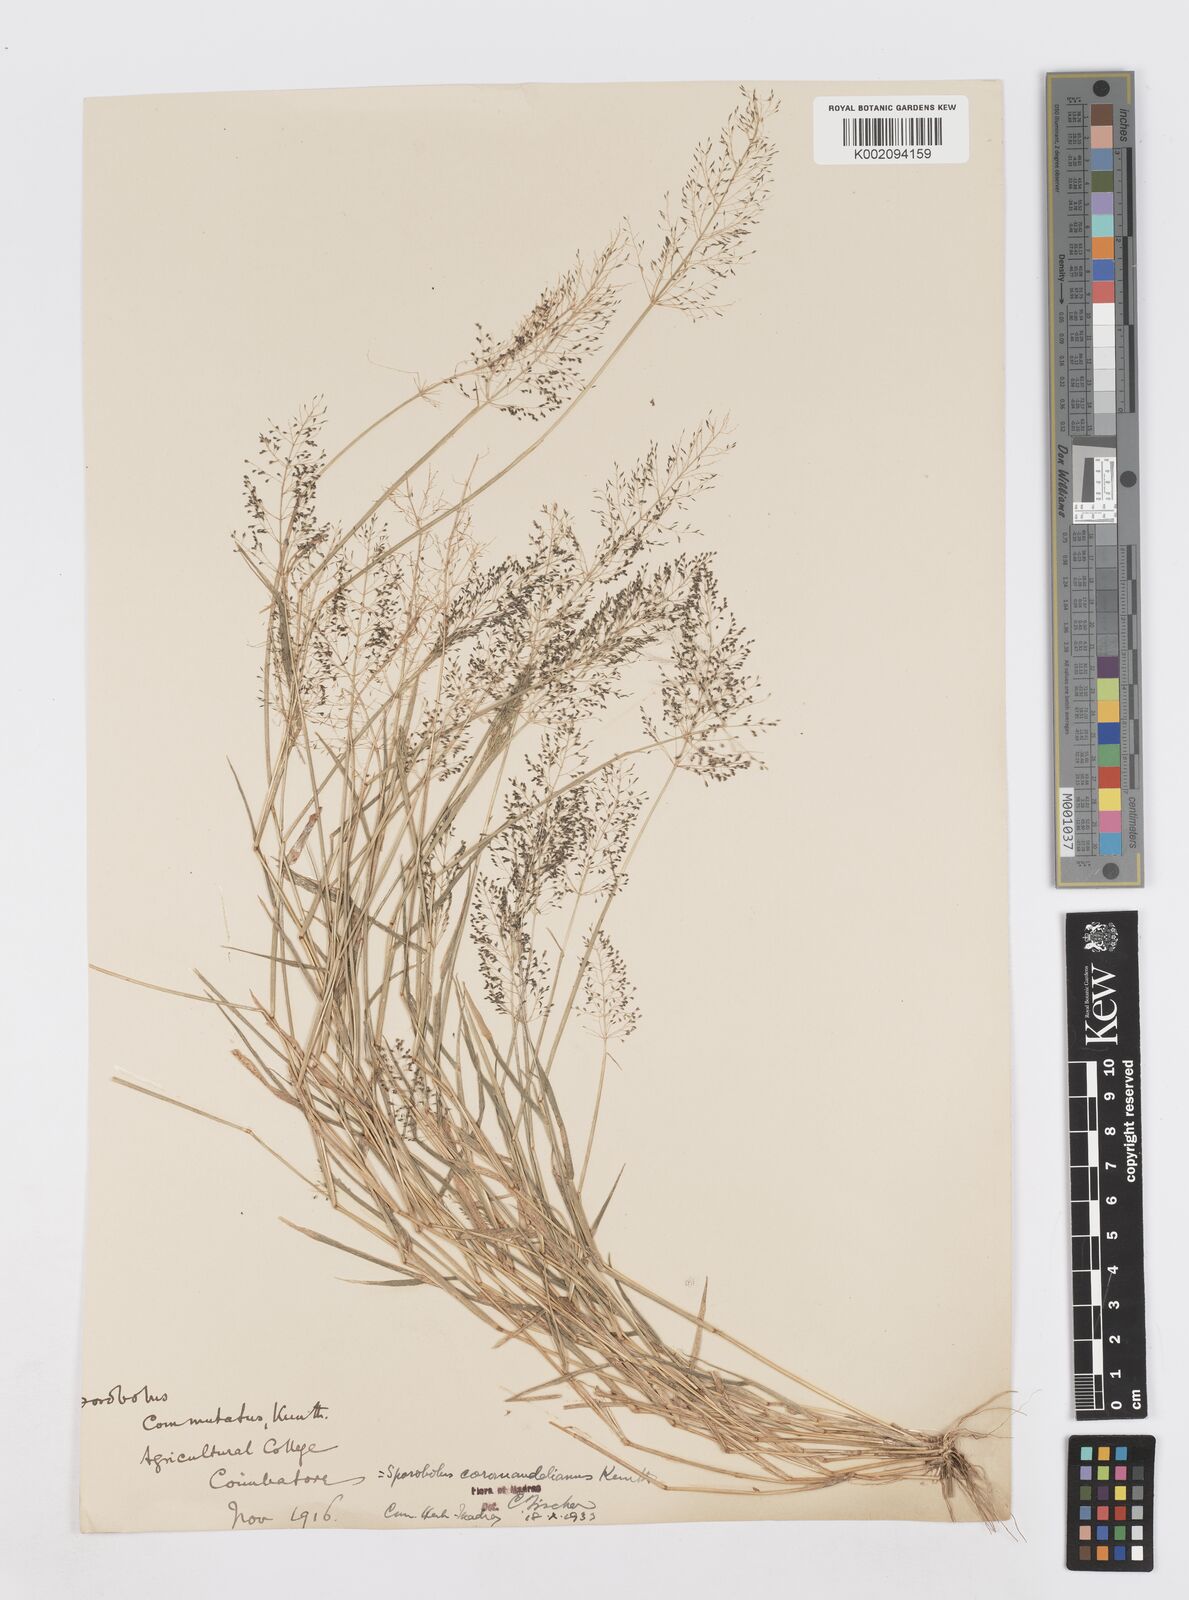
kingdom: Plantae
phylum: Tracheophyta
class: Liliopsida
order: Poales
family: Poaceae
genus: Sporobolus
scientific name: Sporobolus coromandelianus
